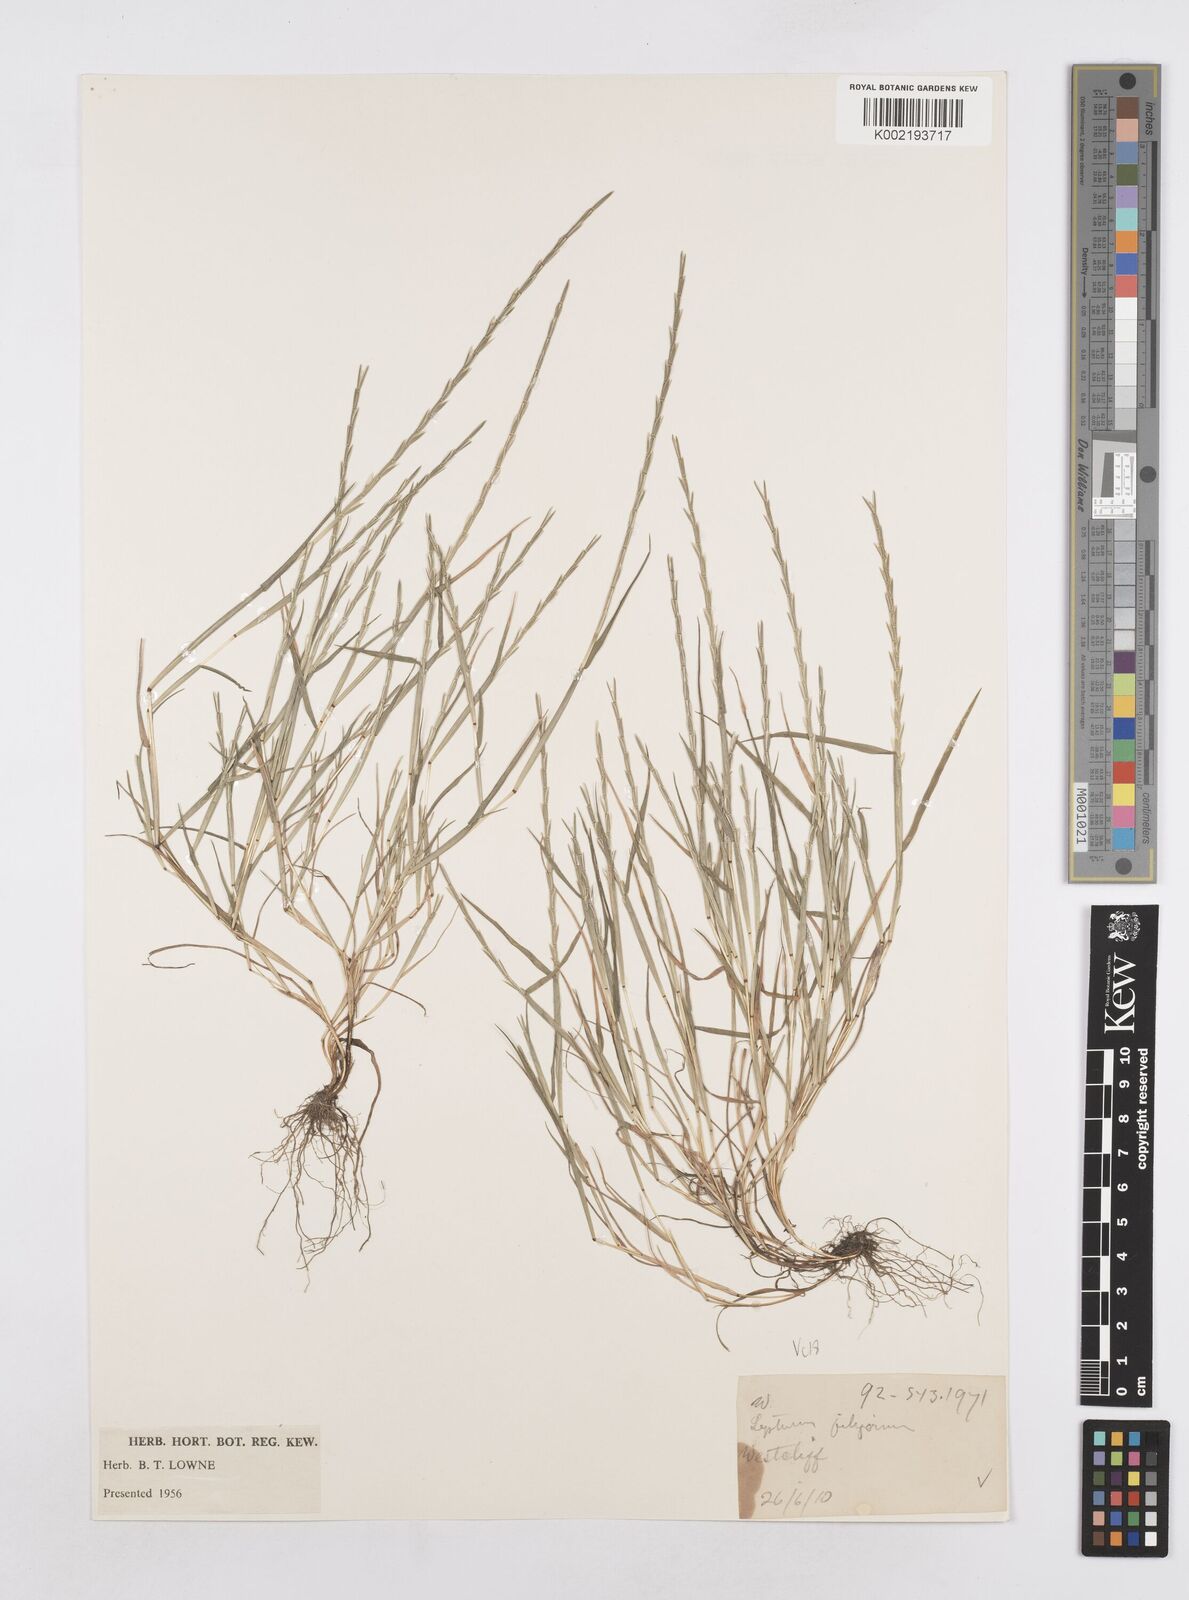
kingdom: Plantae
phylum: Tracheophyta
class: Liliopsida
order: Poales
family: Poaceae
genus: Parapholis
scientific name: Parapholis strigosa
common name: Hard-grass
